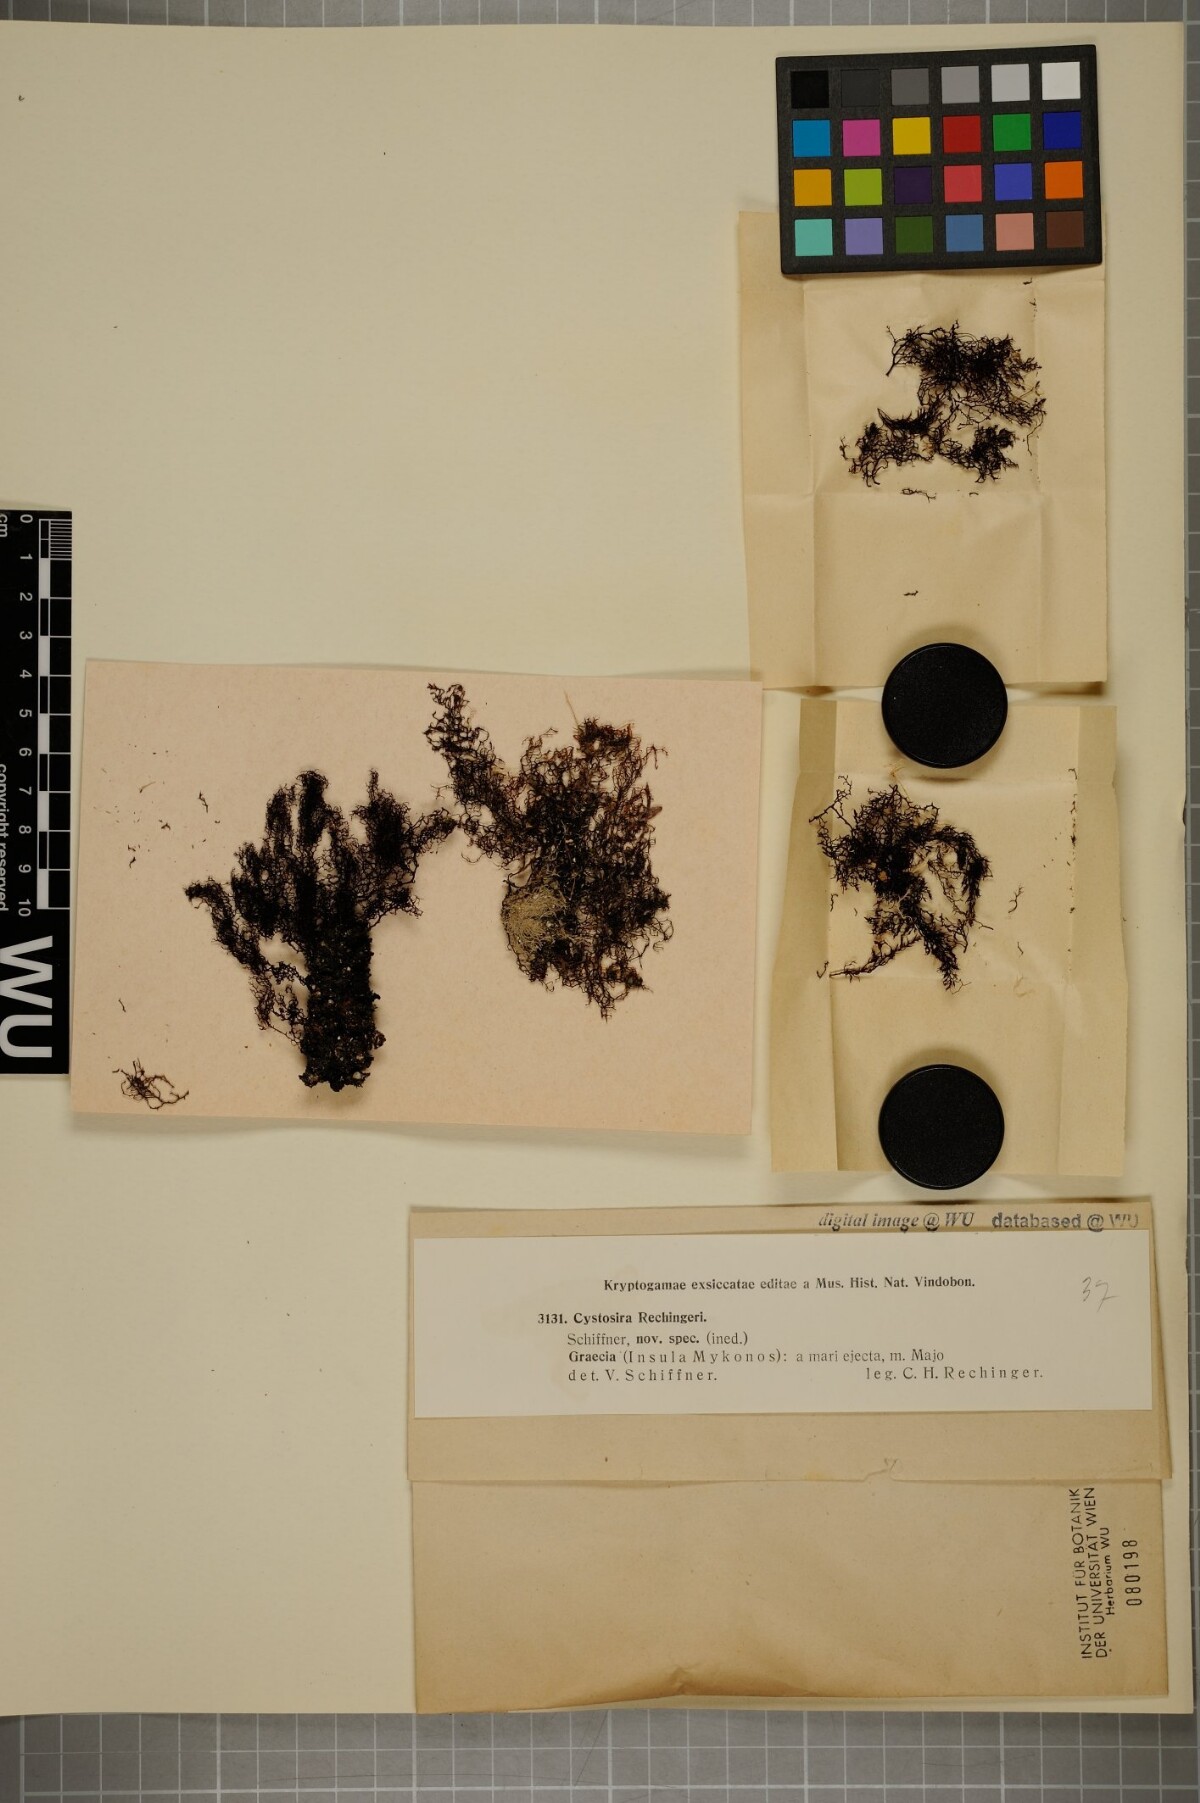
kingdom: Chromista
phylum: Ochrophyta
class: Phaeophyceae
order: Fucales
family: Sargassaceae
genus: Cystoseira
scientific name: Cystoseira Gongolaria montagnei
